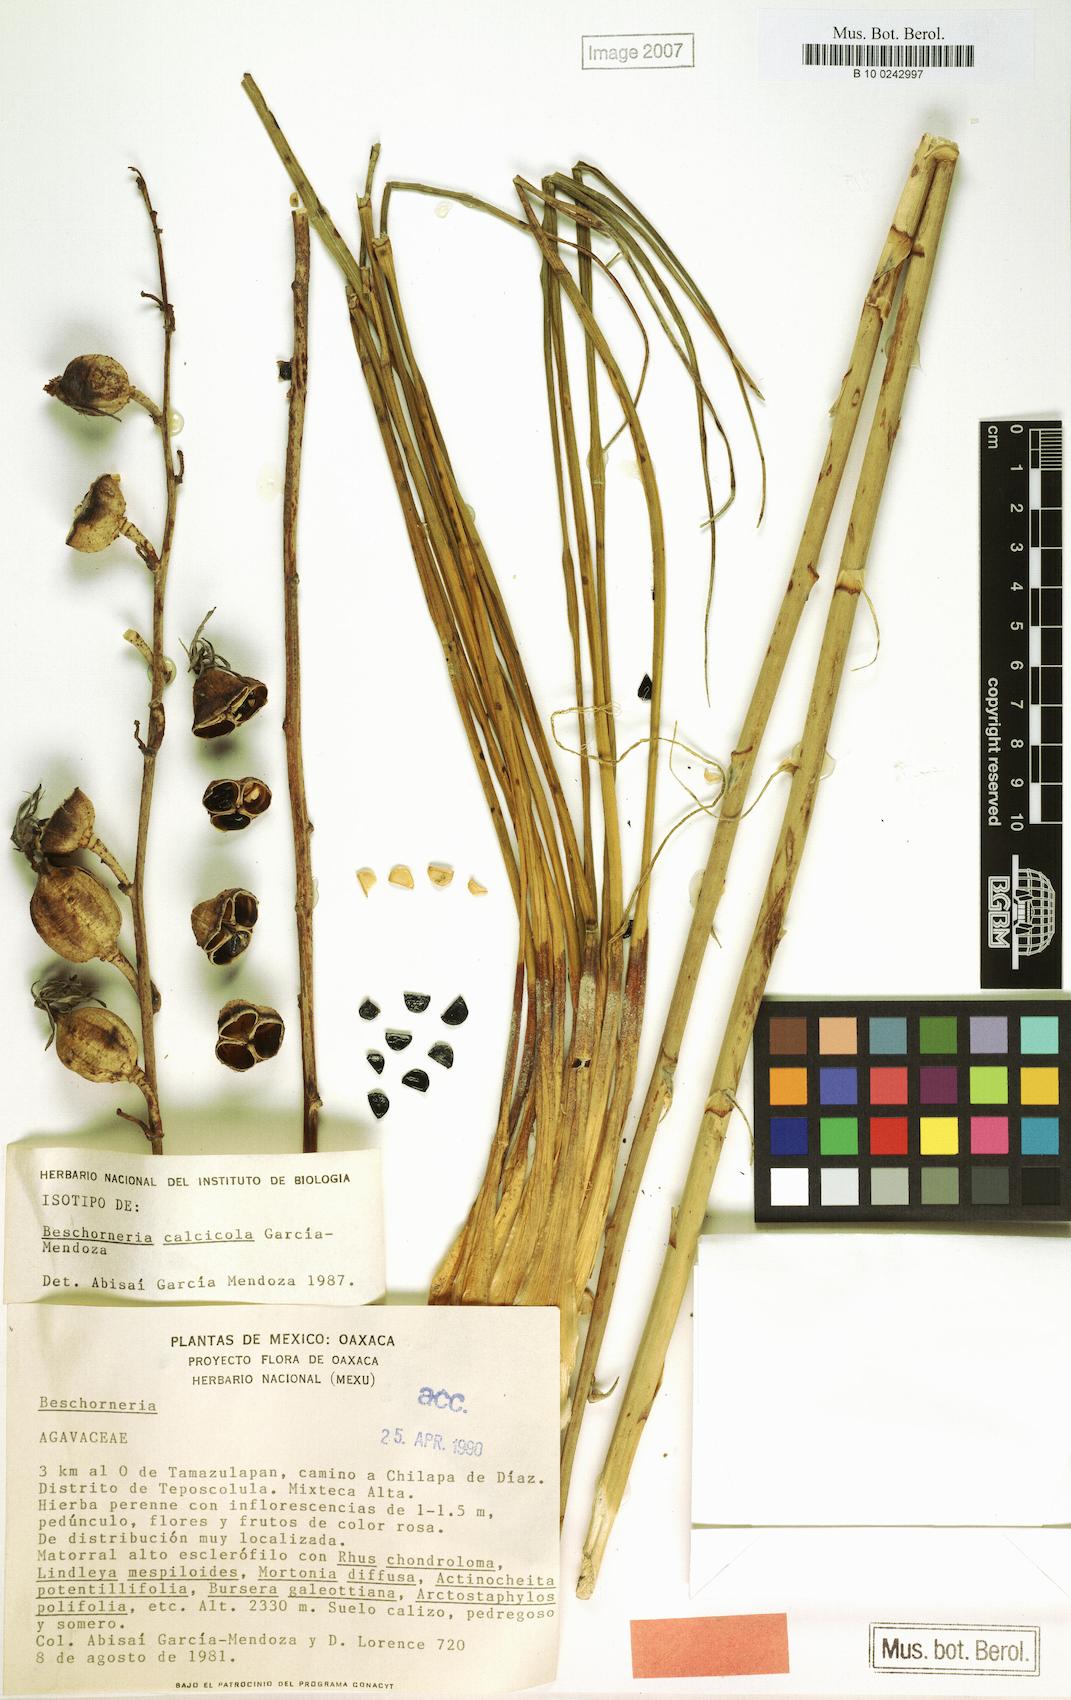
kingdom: Plantae
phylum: Tracheophyta
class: Liliopsida
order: Asparagales
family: Asparagaceae
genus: Beschorneria
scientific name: Beschorneria calcicola
